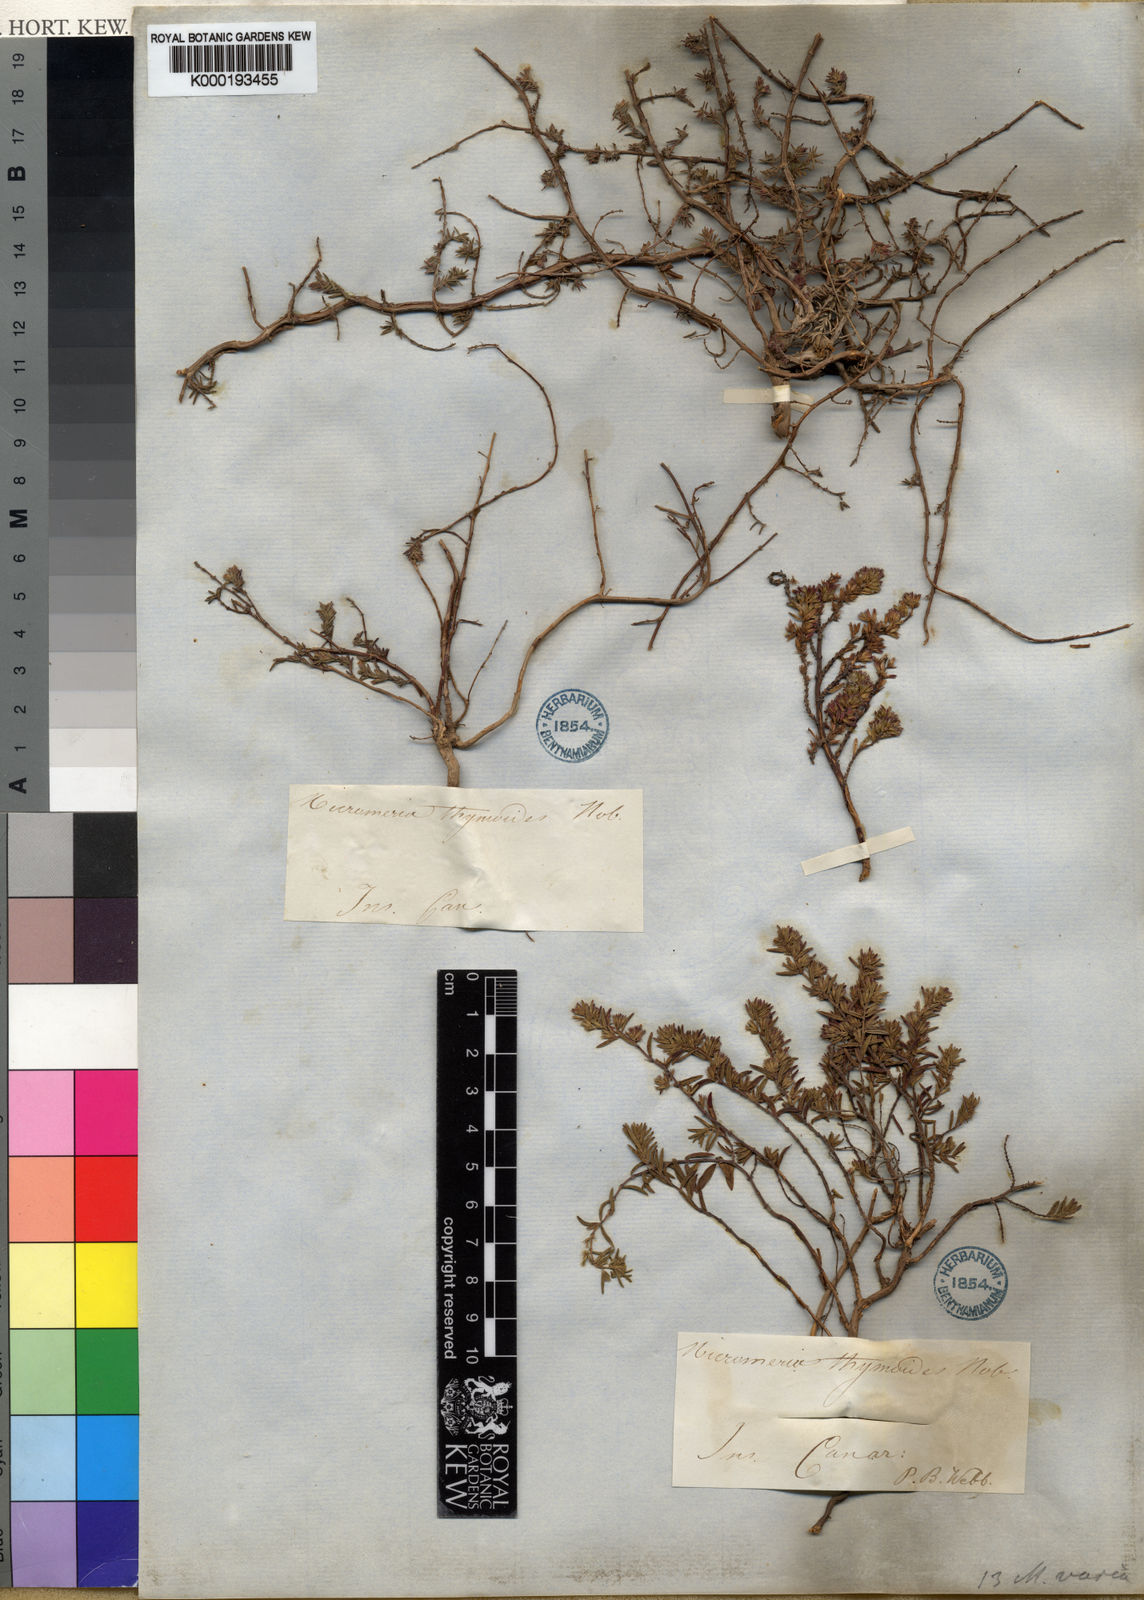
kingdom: Plantae
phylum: Tracheophyta
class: Magnoliopsida
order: Lamiales
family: Lamiaceae
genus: Micromeria
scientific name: Micromeria maderensis
